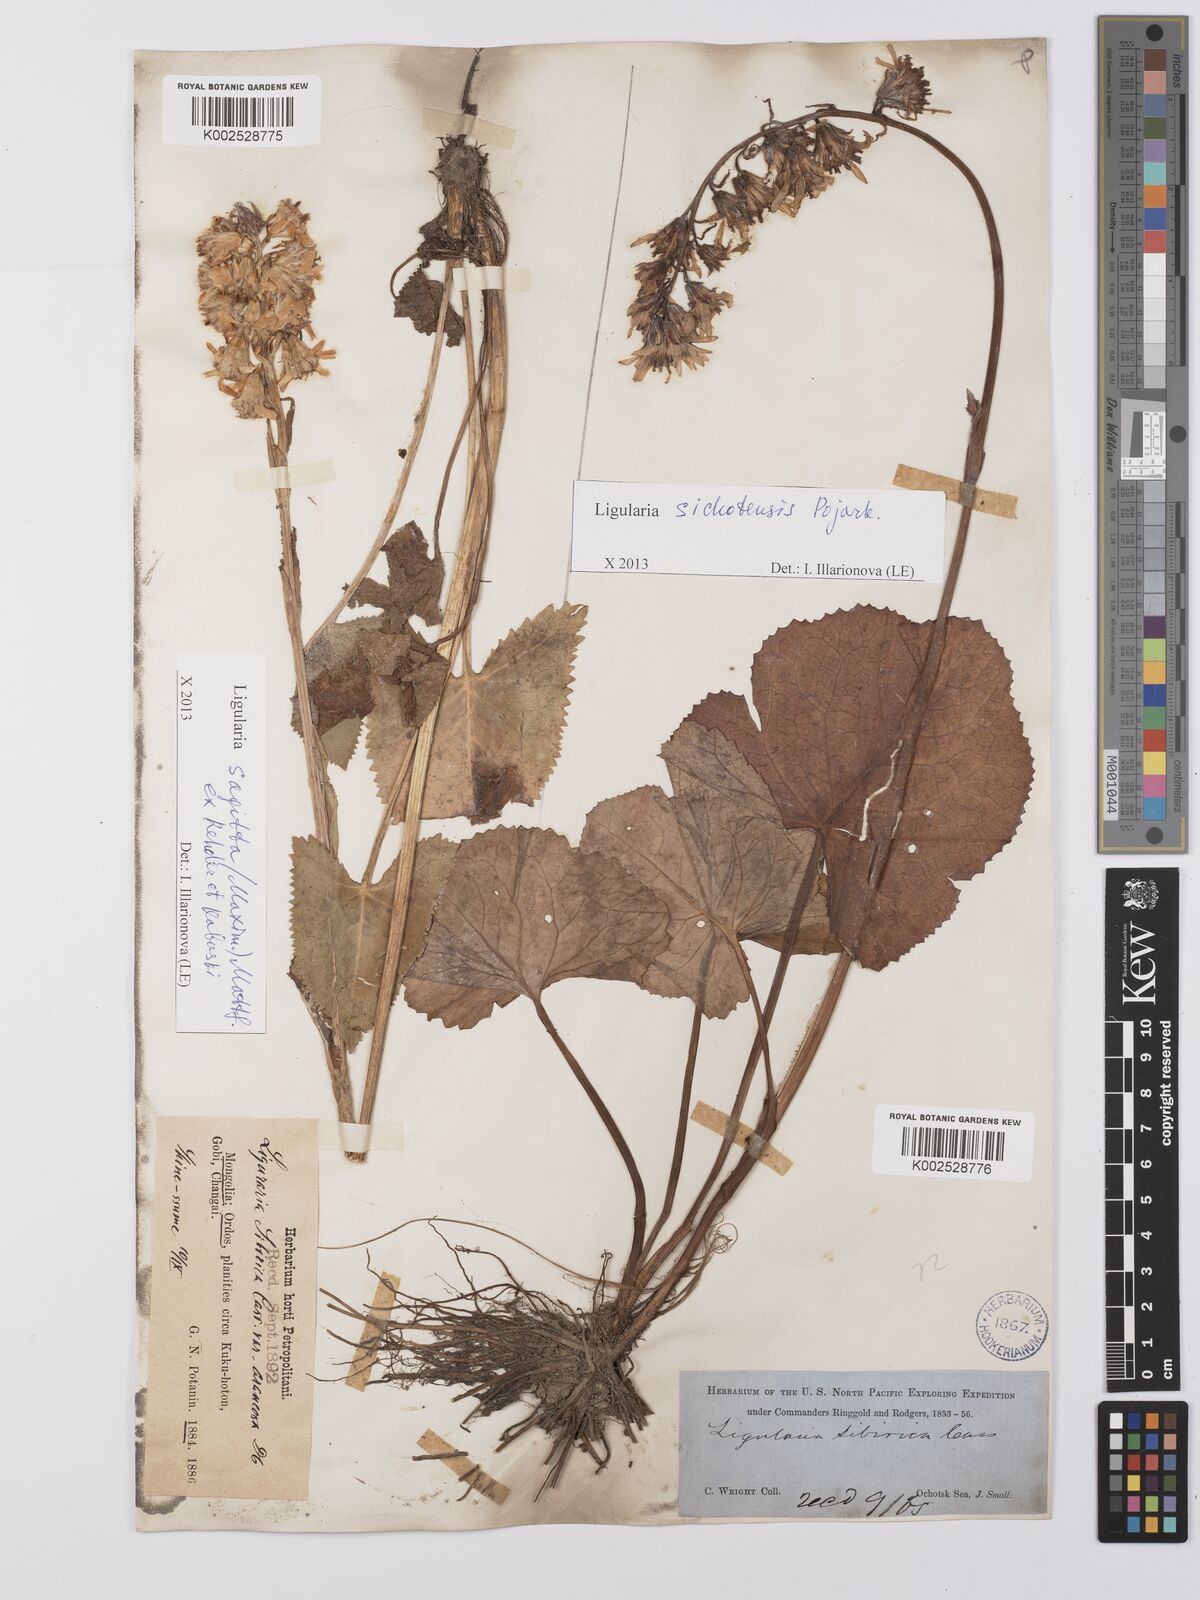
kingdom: Plantae
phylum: Tracheophyta
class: Magnoliopsida
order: Asterales
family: Asteraceae
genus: Ligularia
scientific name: Ligularia sichotensis
